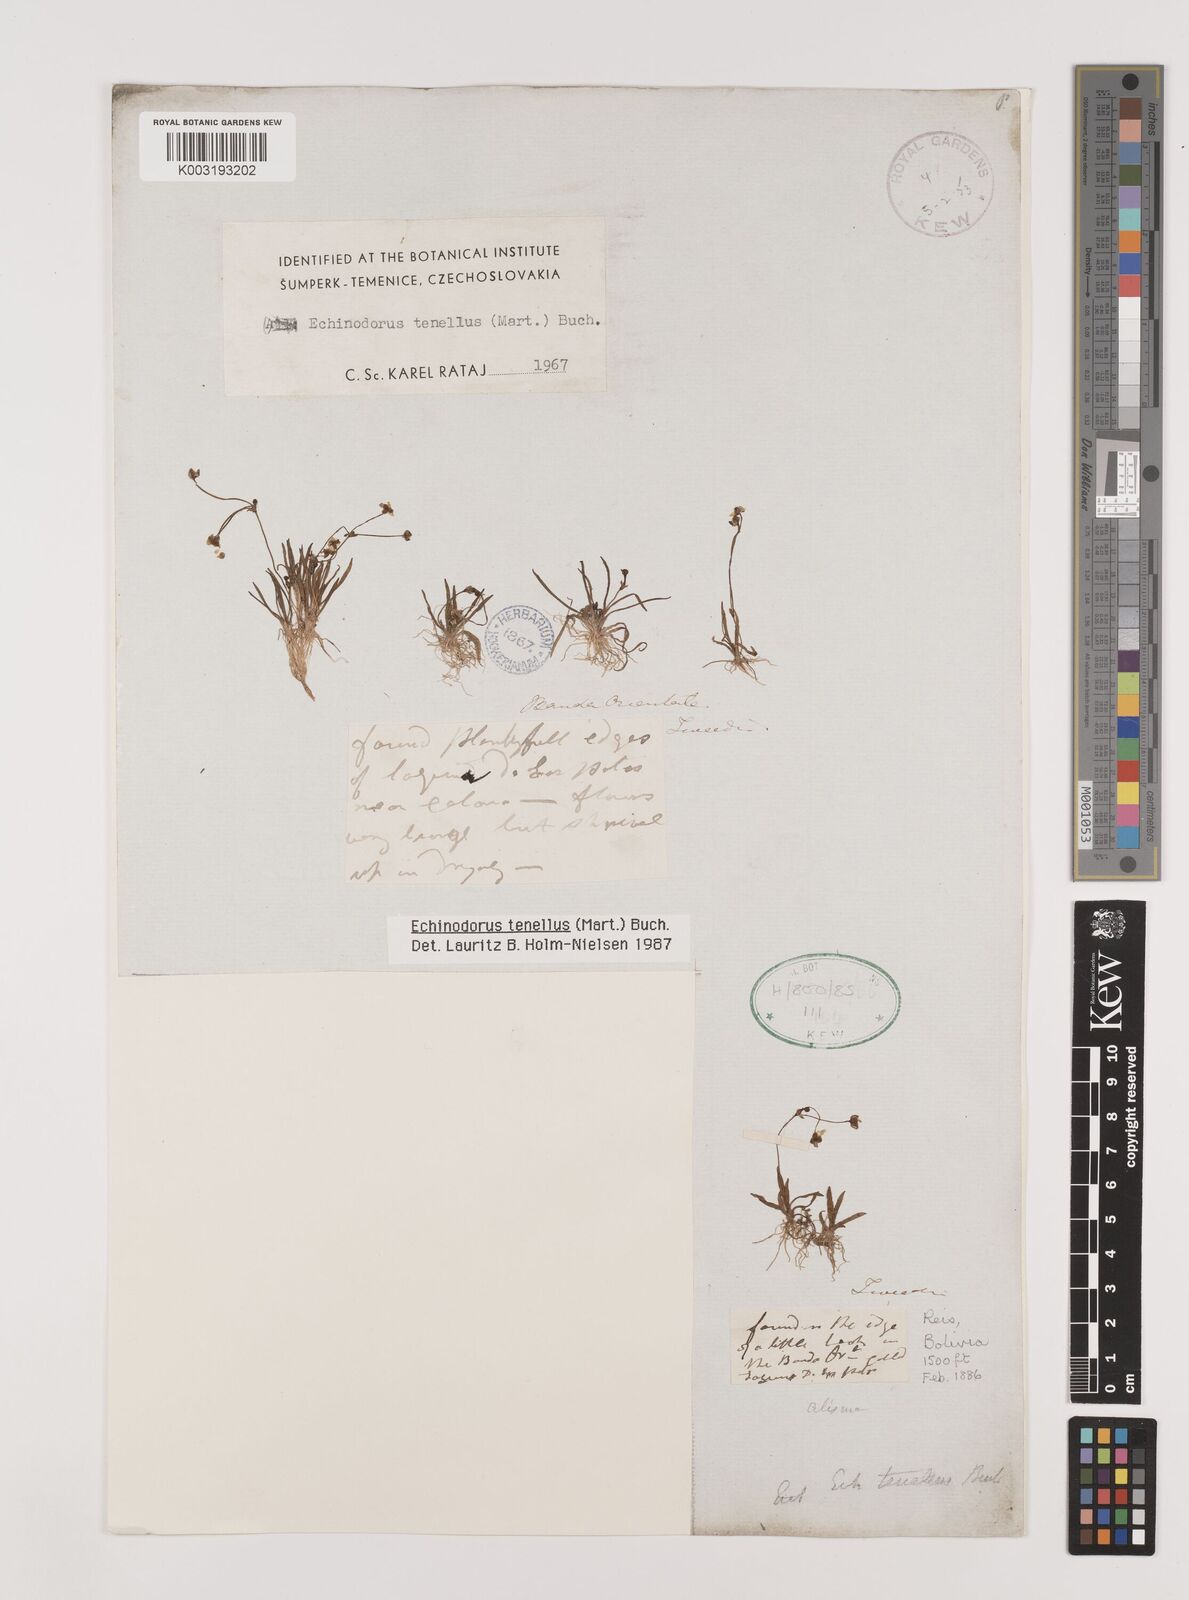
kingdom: Plantae
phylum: Tracheophyta
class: Liliopsida
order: Alismatales
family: Alismataceae
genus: Helanthium
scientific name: Helanthium tenellum
